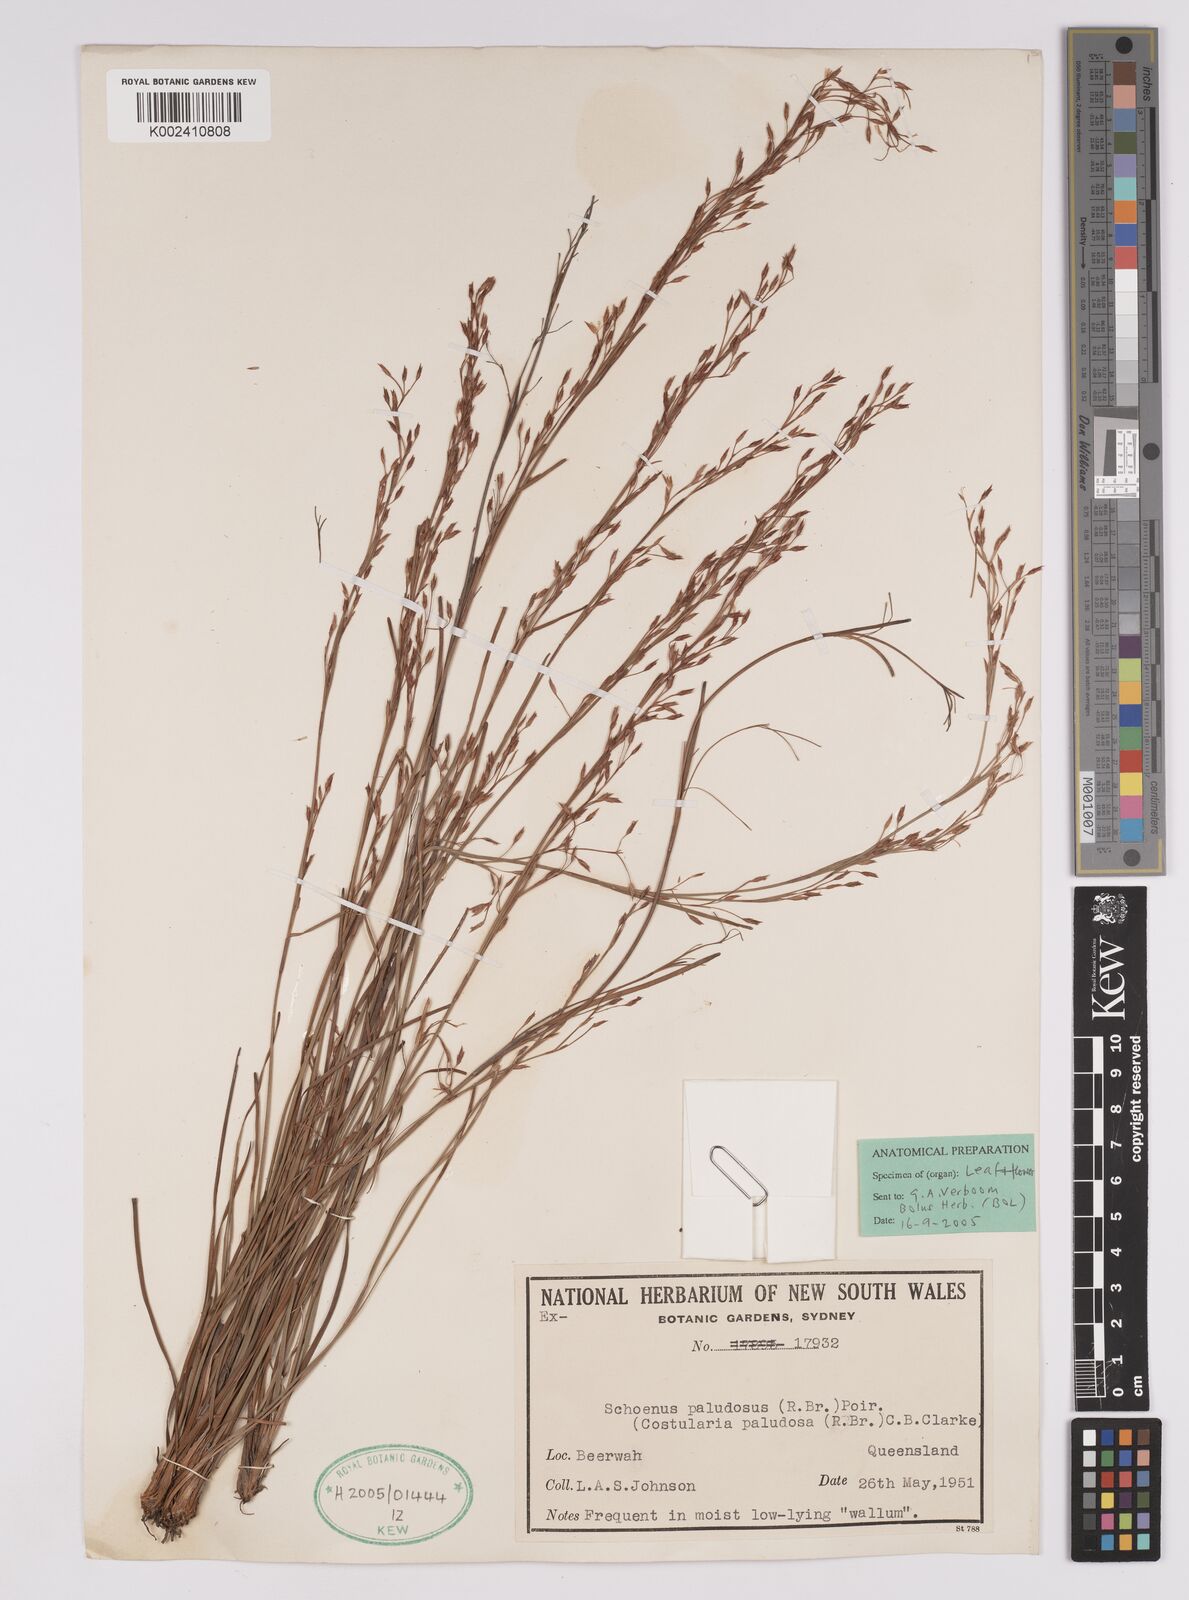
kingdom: Plantae
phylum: Tracheophyta
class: Liliopsida
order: Poales
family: Cyperaceae
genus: Anthelepis
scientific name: Anthelepis paludosa
